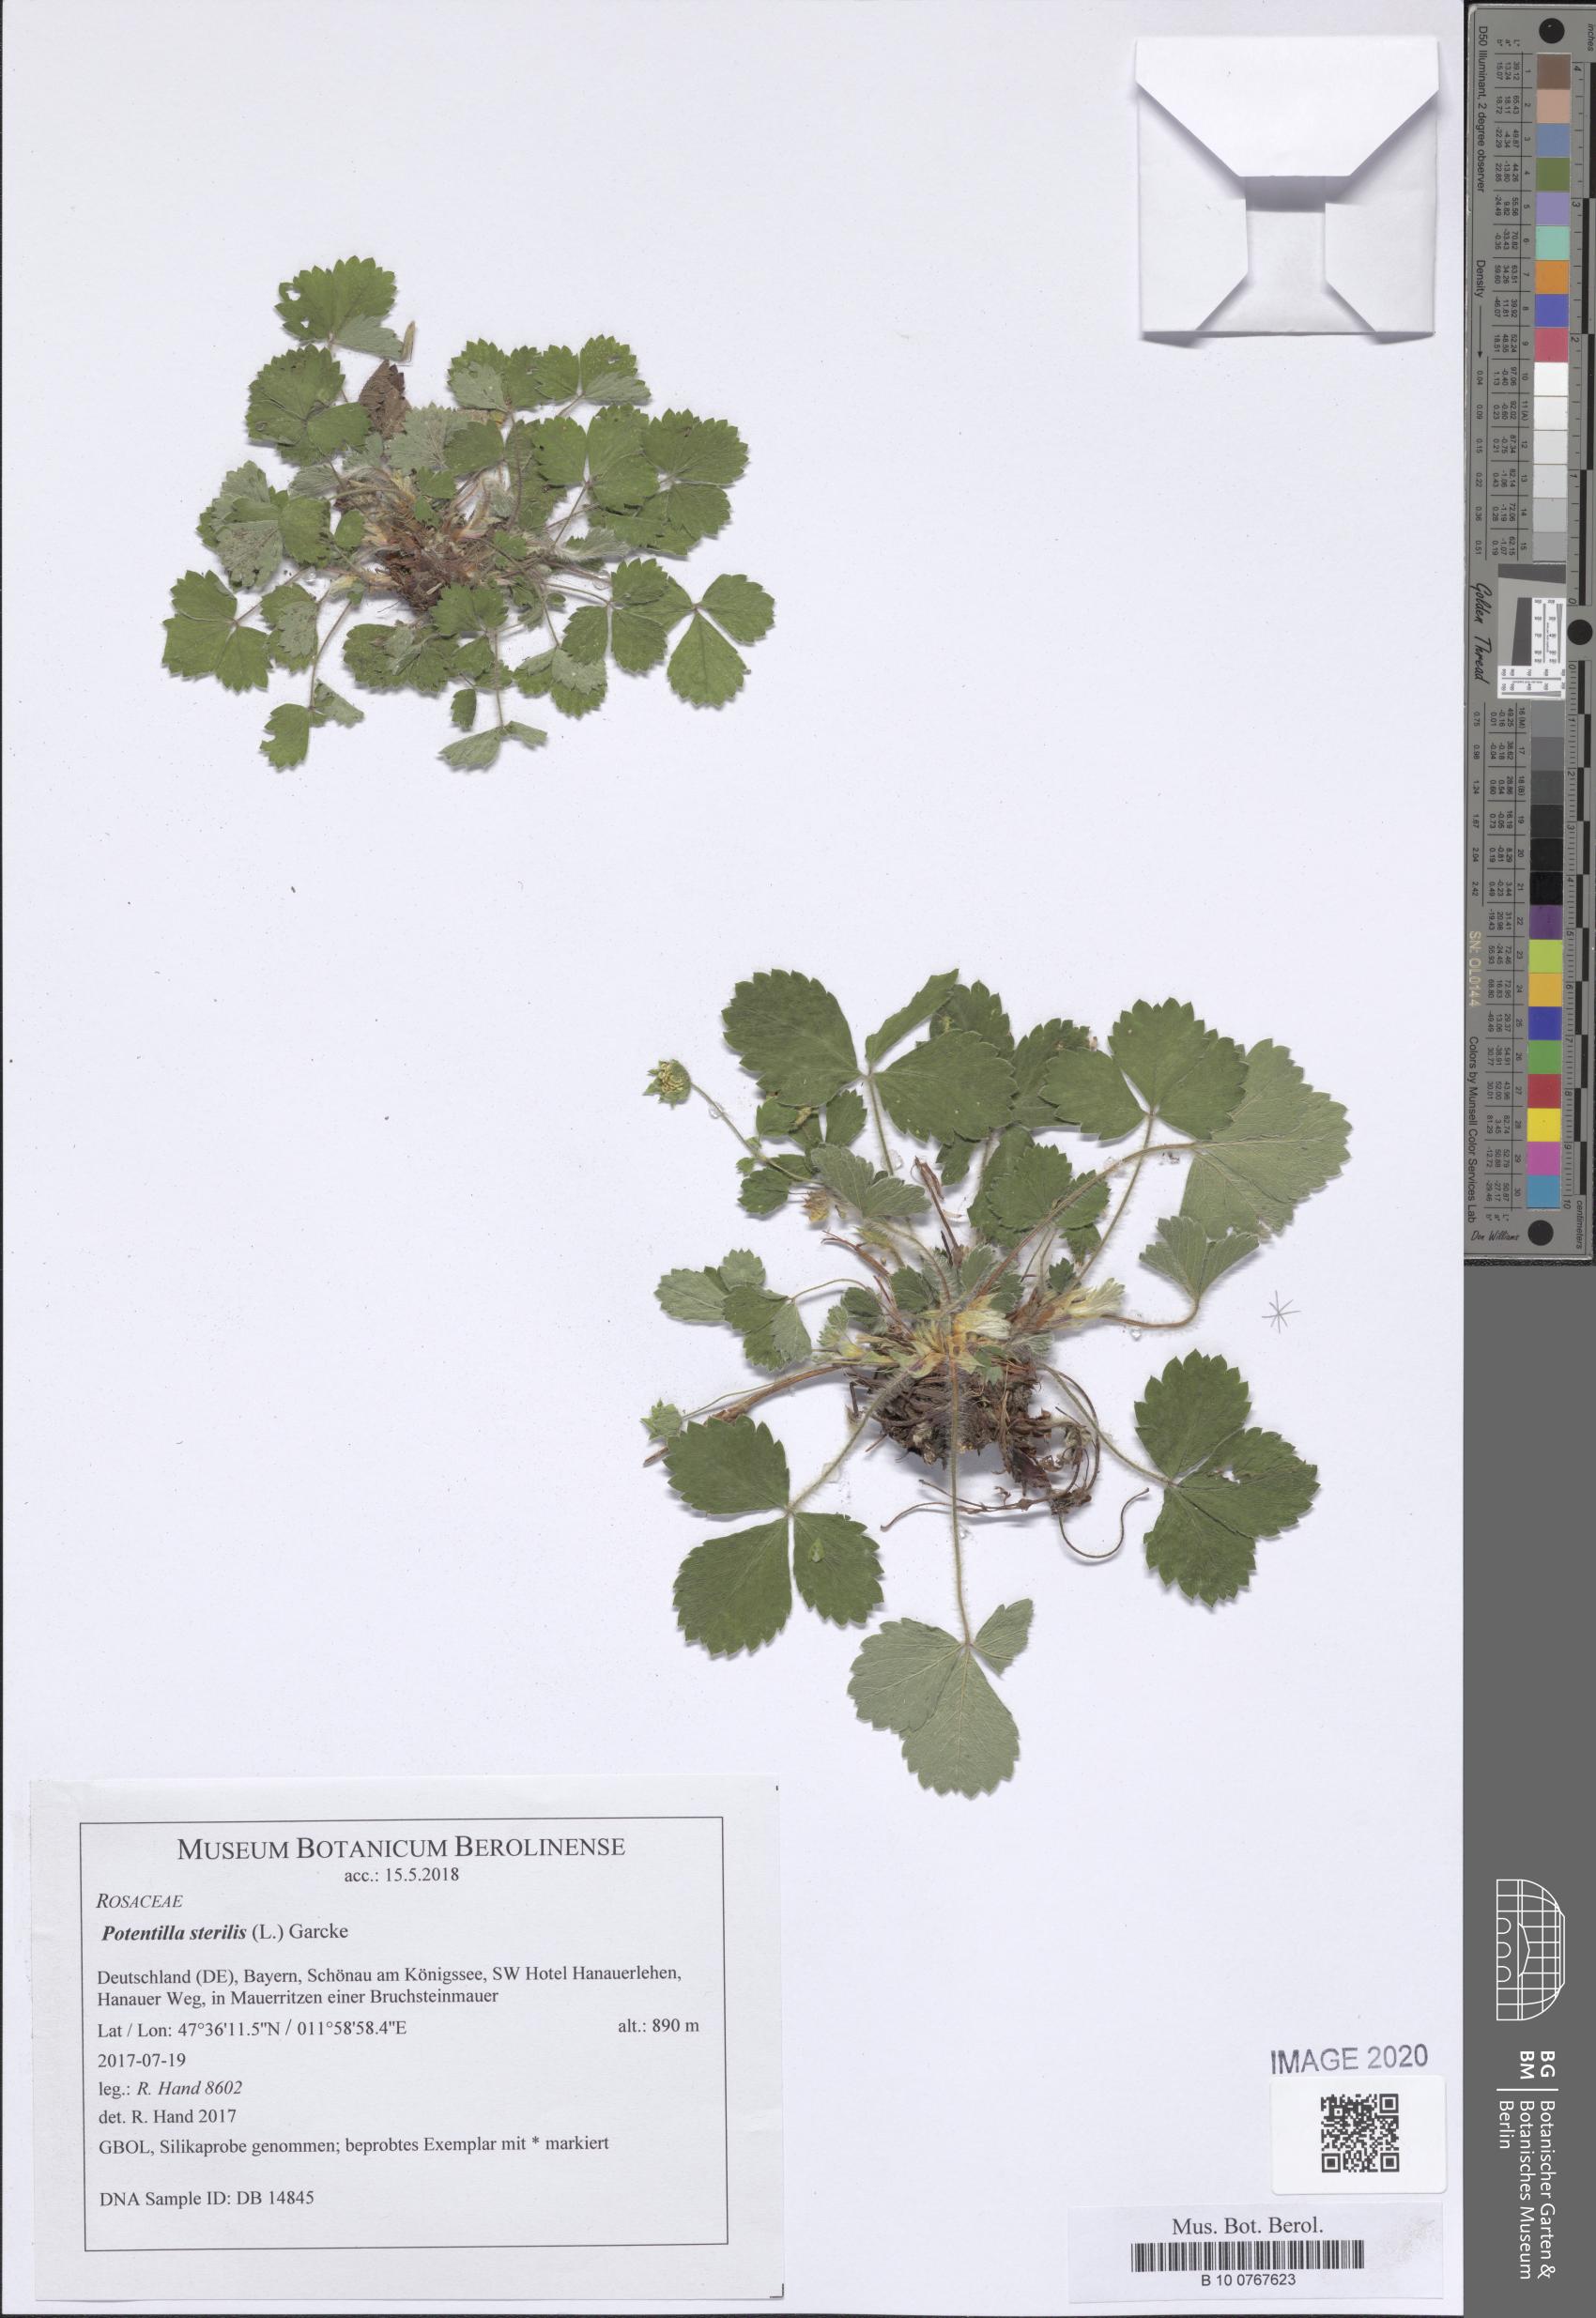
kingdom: Plantae
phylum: Tracheophyta
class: Magnoliopsida
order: Rosales
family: Rosaceae
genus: Potentilla
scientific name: Potentilla sterilis
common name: Barren strawberry
